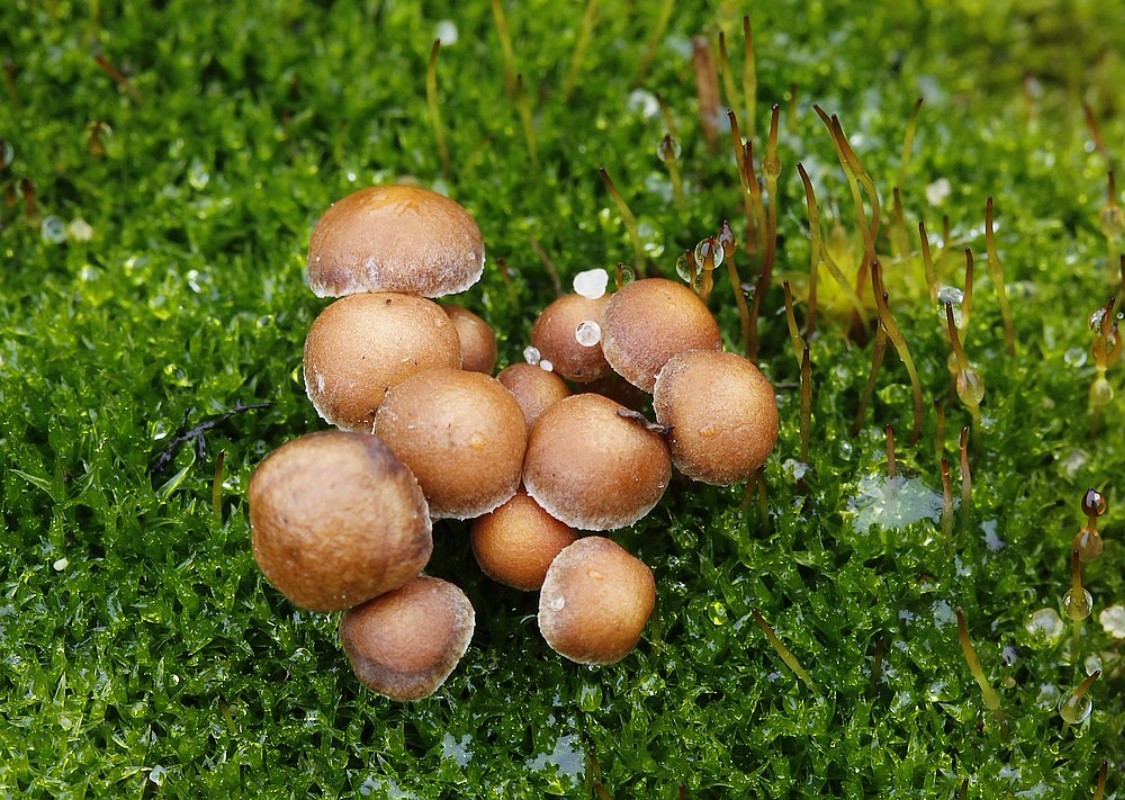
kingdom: Fungi
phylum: Basidiomycota
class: Agaricomycetes
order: Agaricales
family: Strophariaceae
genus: Deconica
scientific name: Deconica montana
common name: rødbrun stråhat
